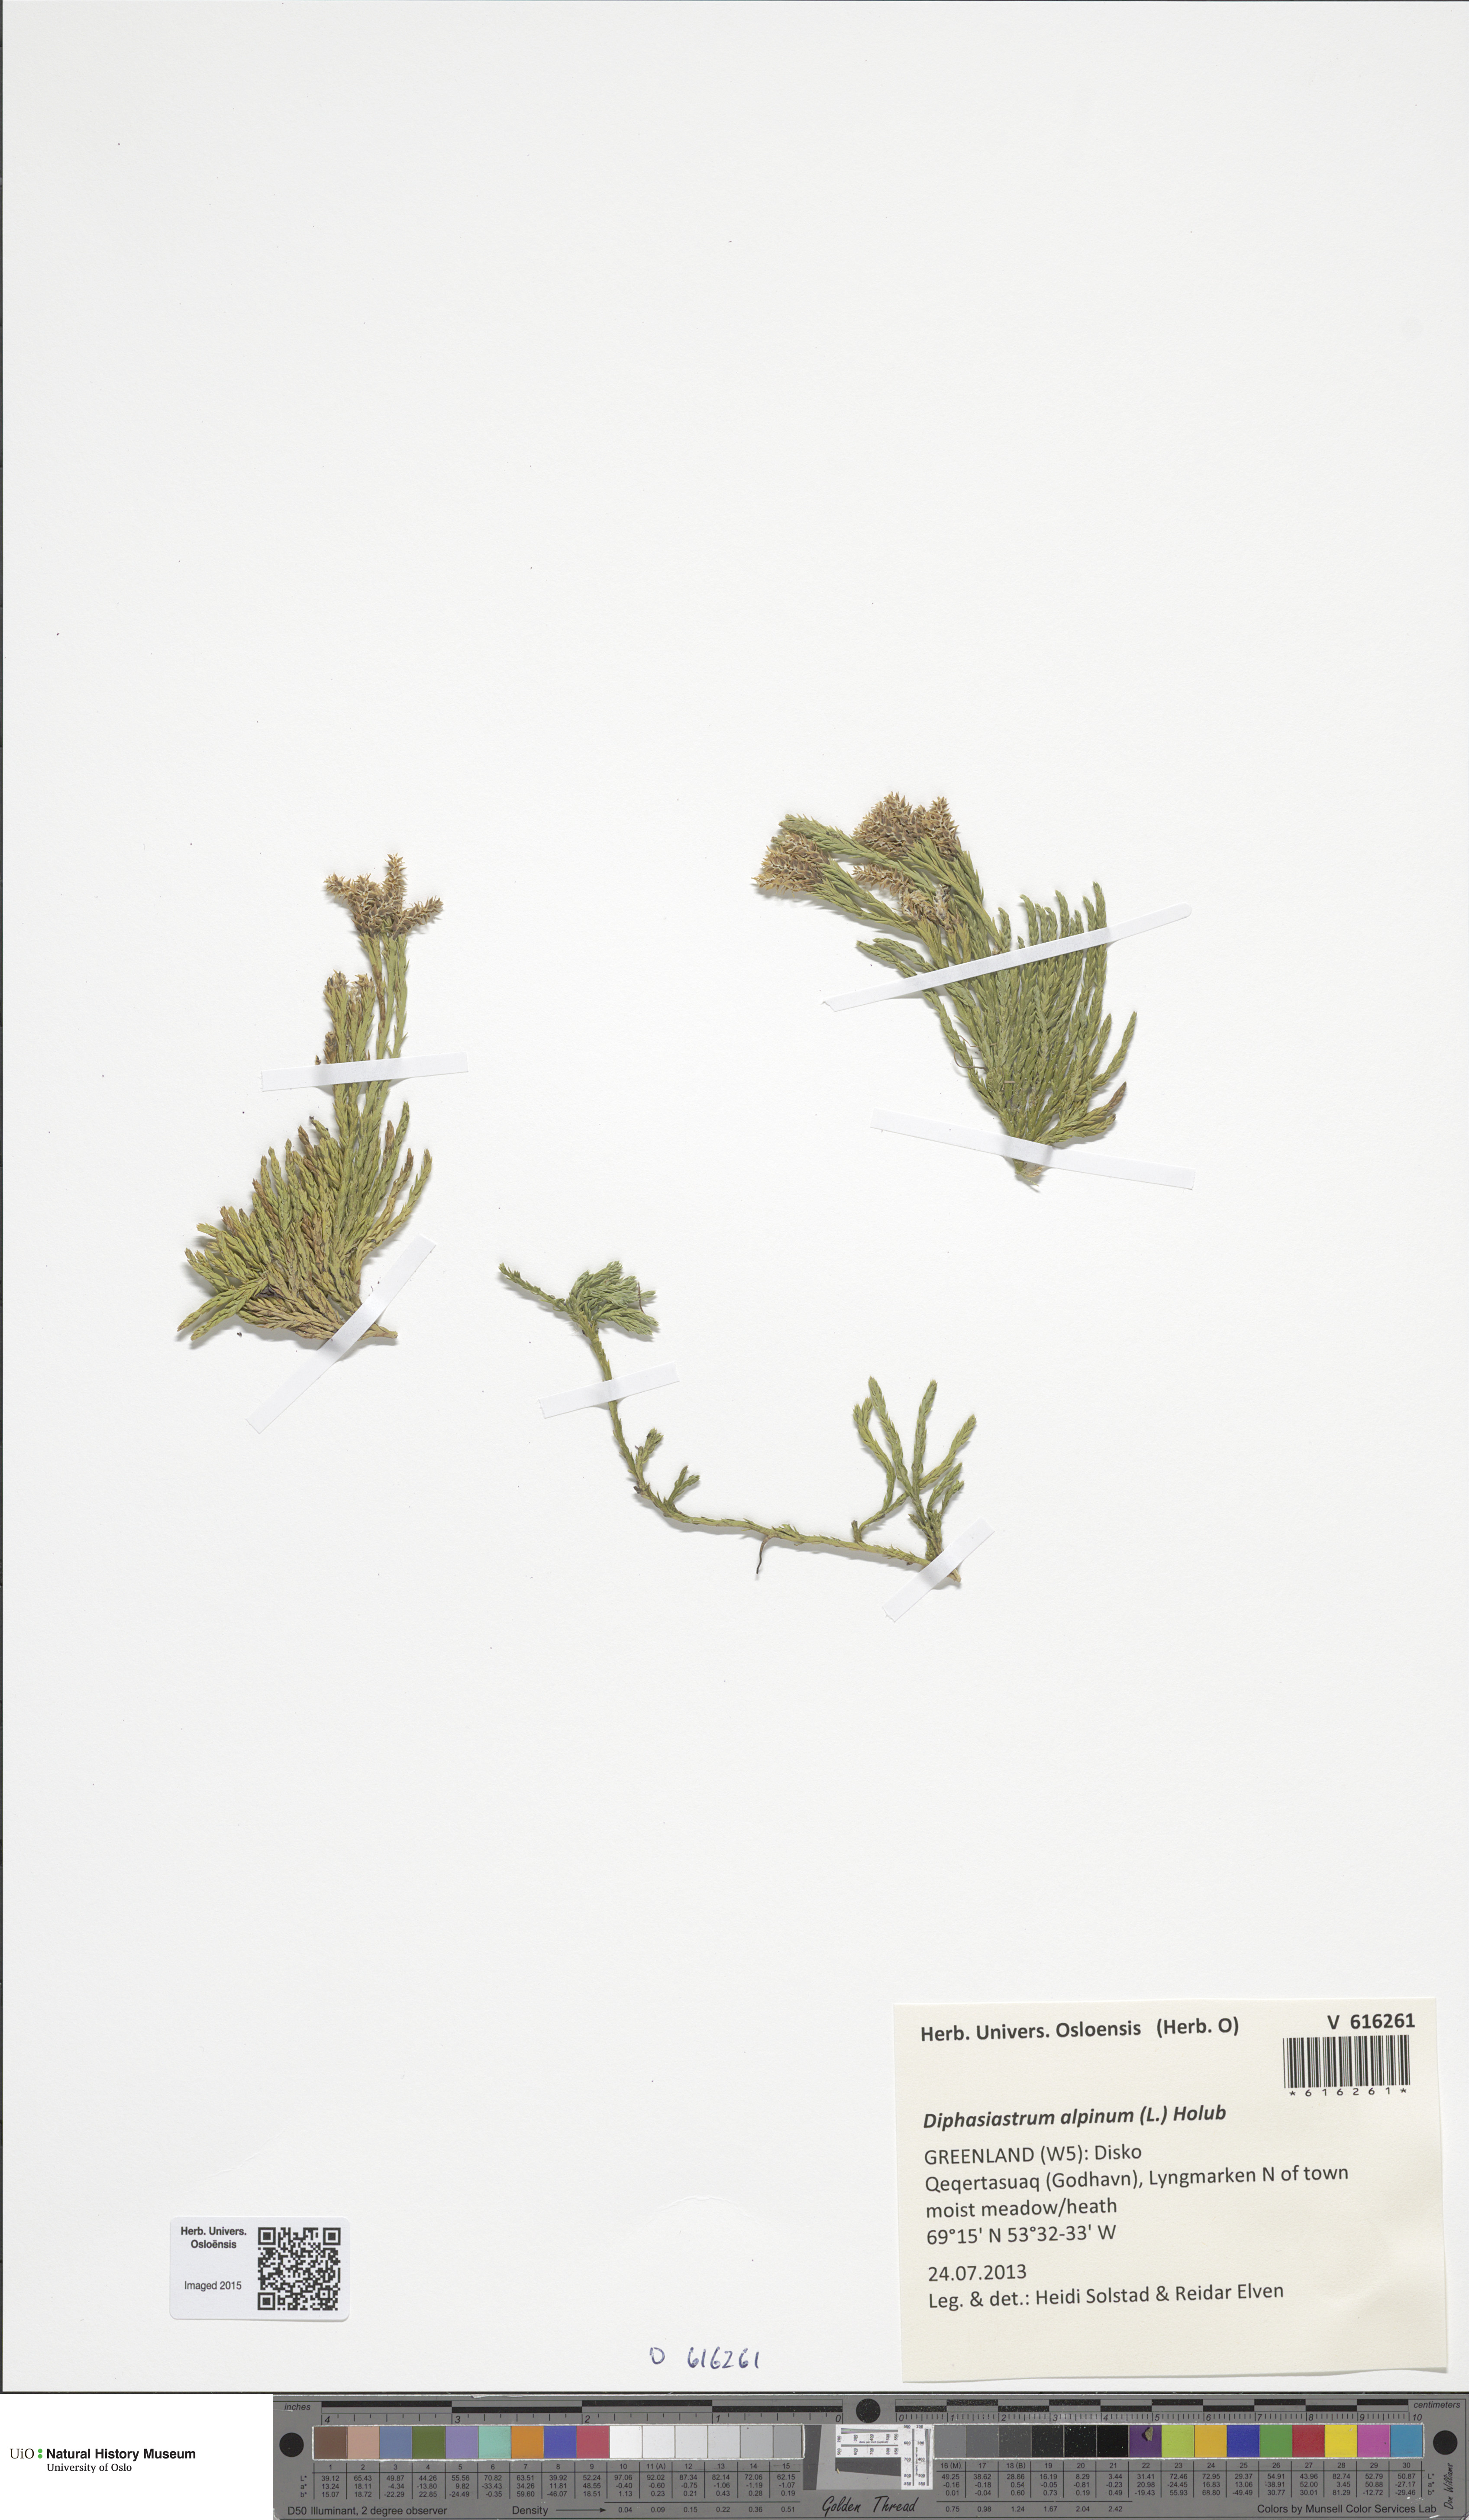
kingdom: Plantae
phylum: Tracheophyta
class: Lycopodiopsida
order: Lycopodiales
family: Lycopodiaceae
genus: Diphasiastrum
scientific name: Diphasiastrum alpinum
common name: Alpine clubmoss
